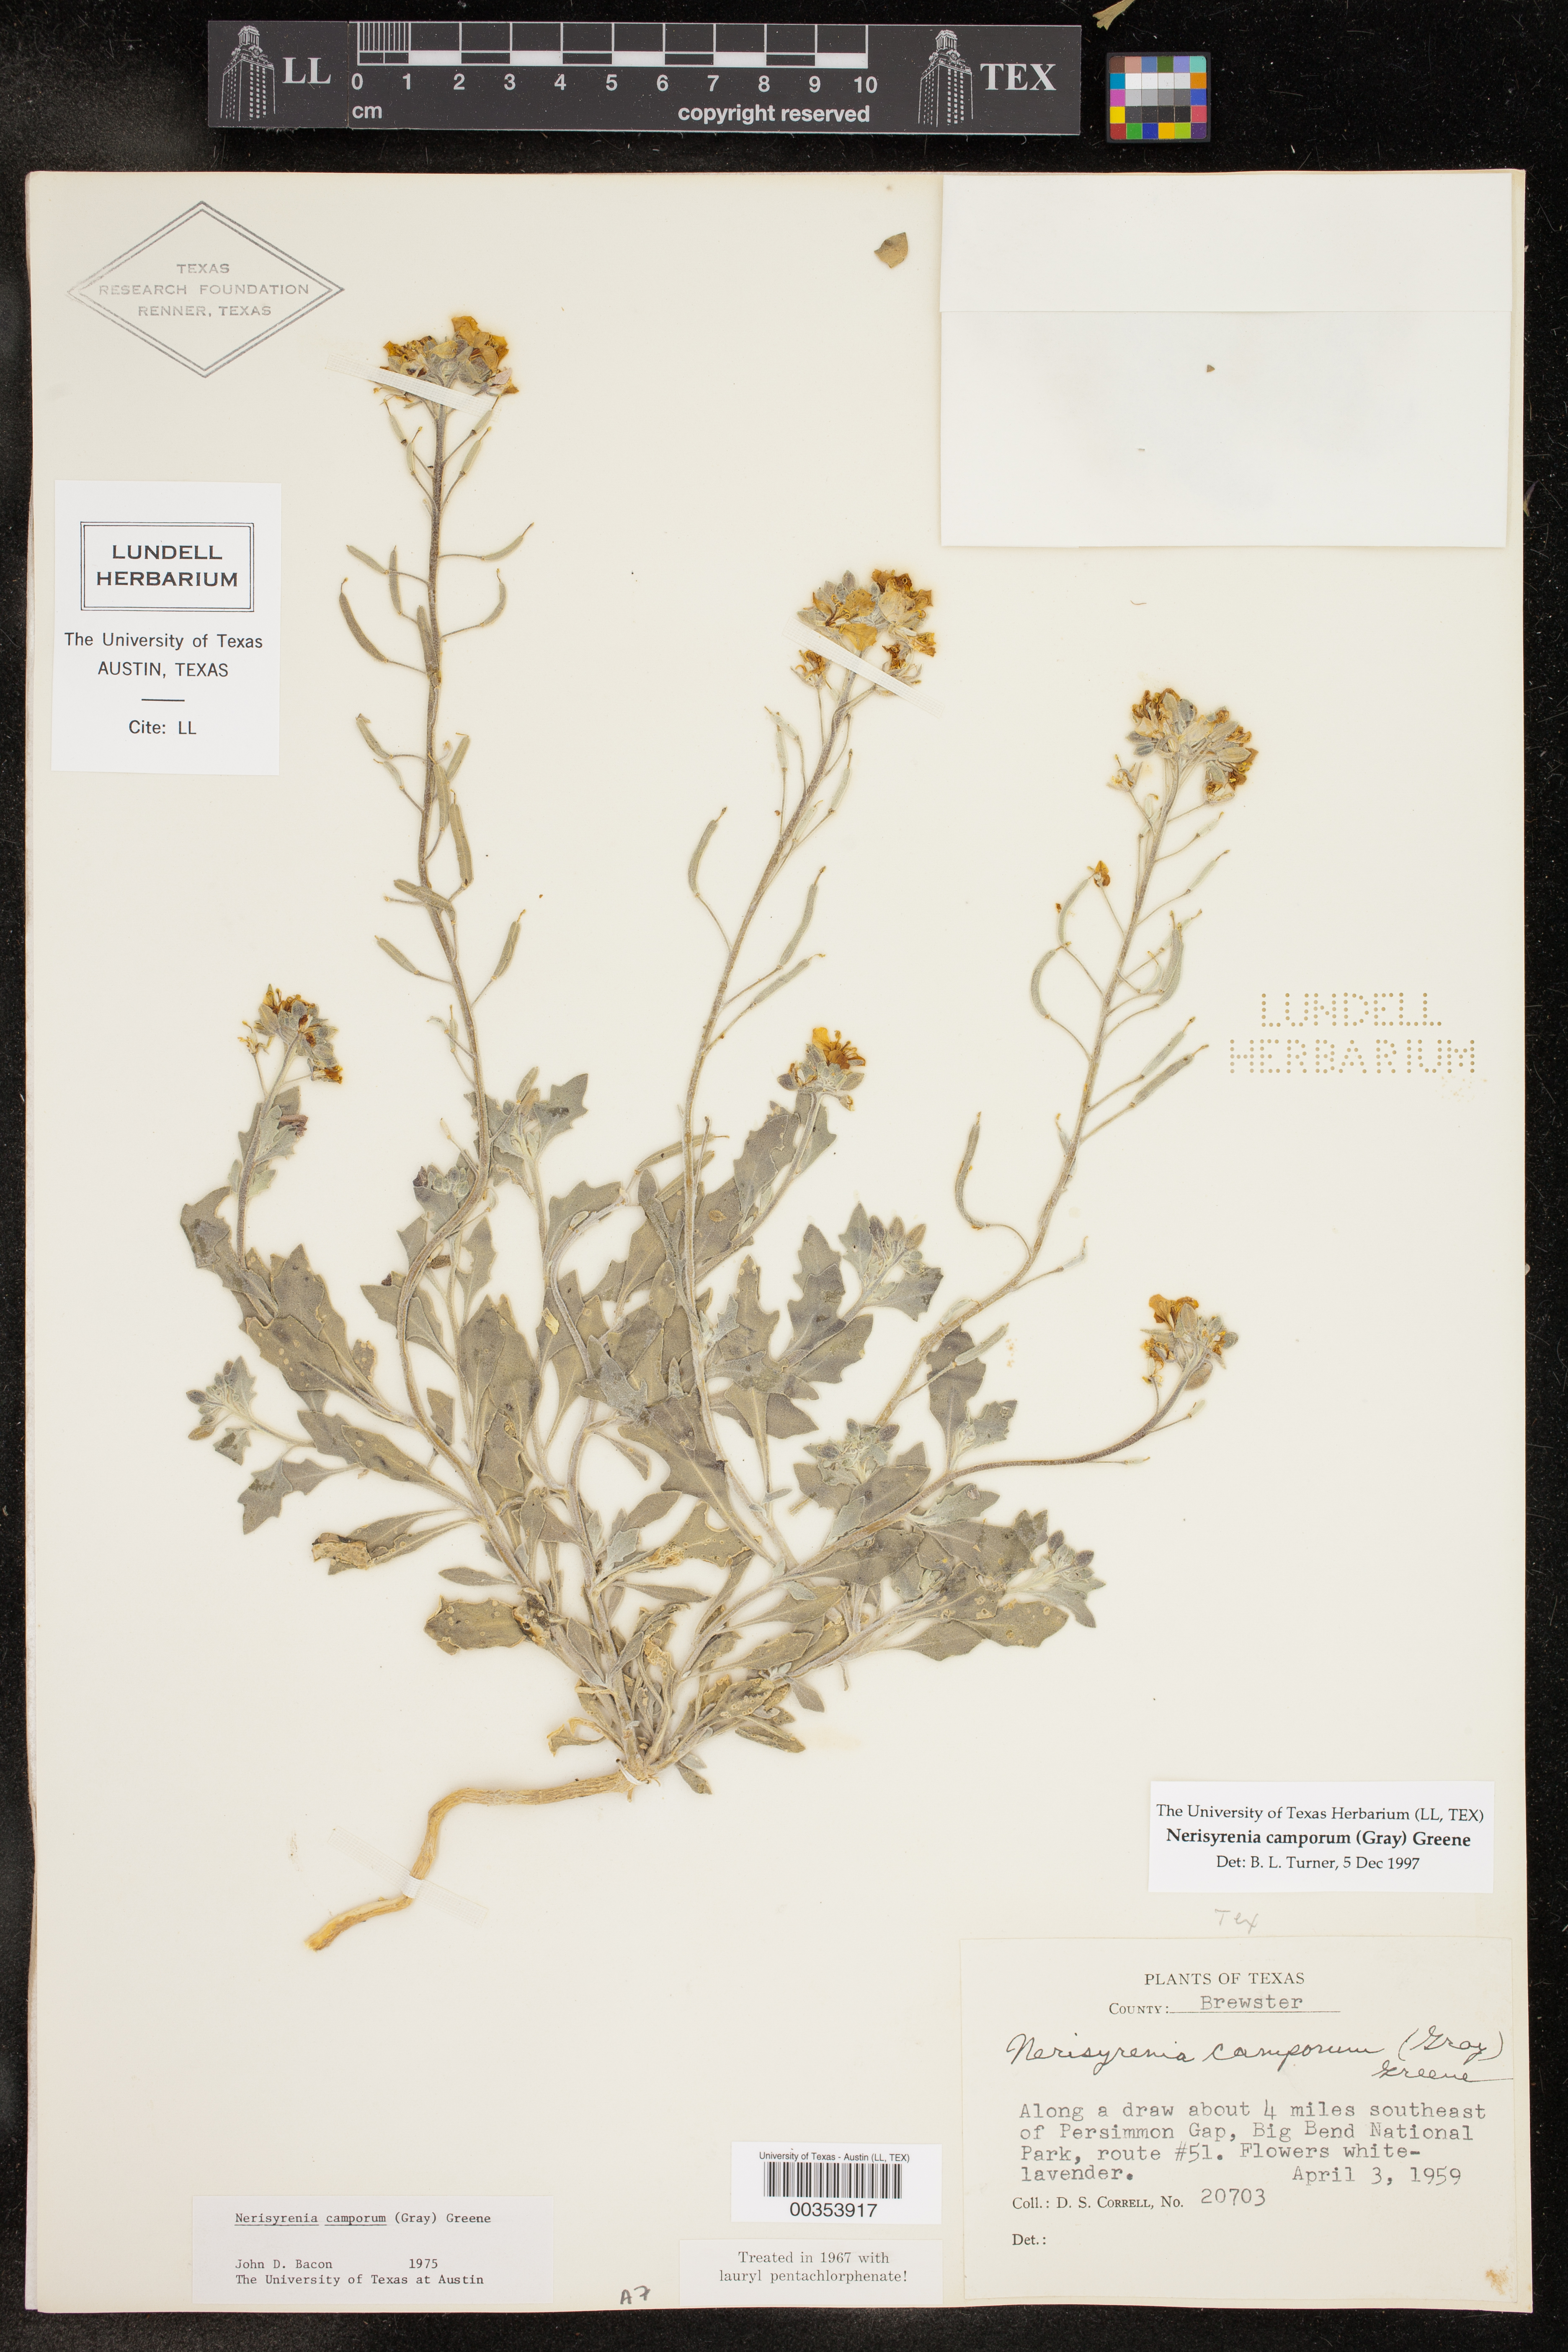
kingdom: Plantae
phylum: Tracheophyta
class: Magnoliopsida
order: Brassicales
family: Brassicaceae
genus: Nerisyrenia
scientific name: Nerisyrenia camporum
